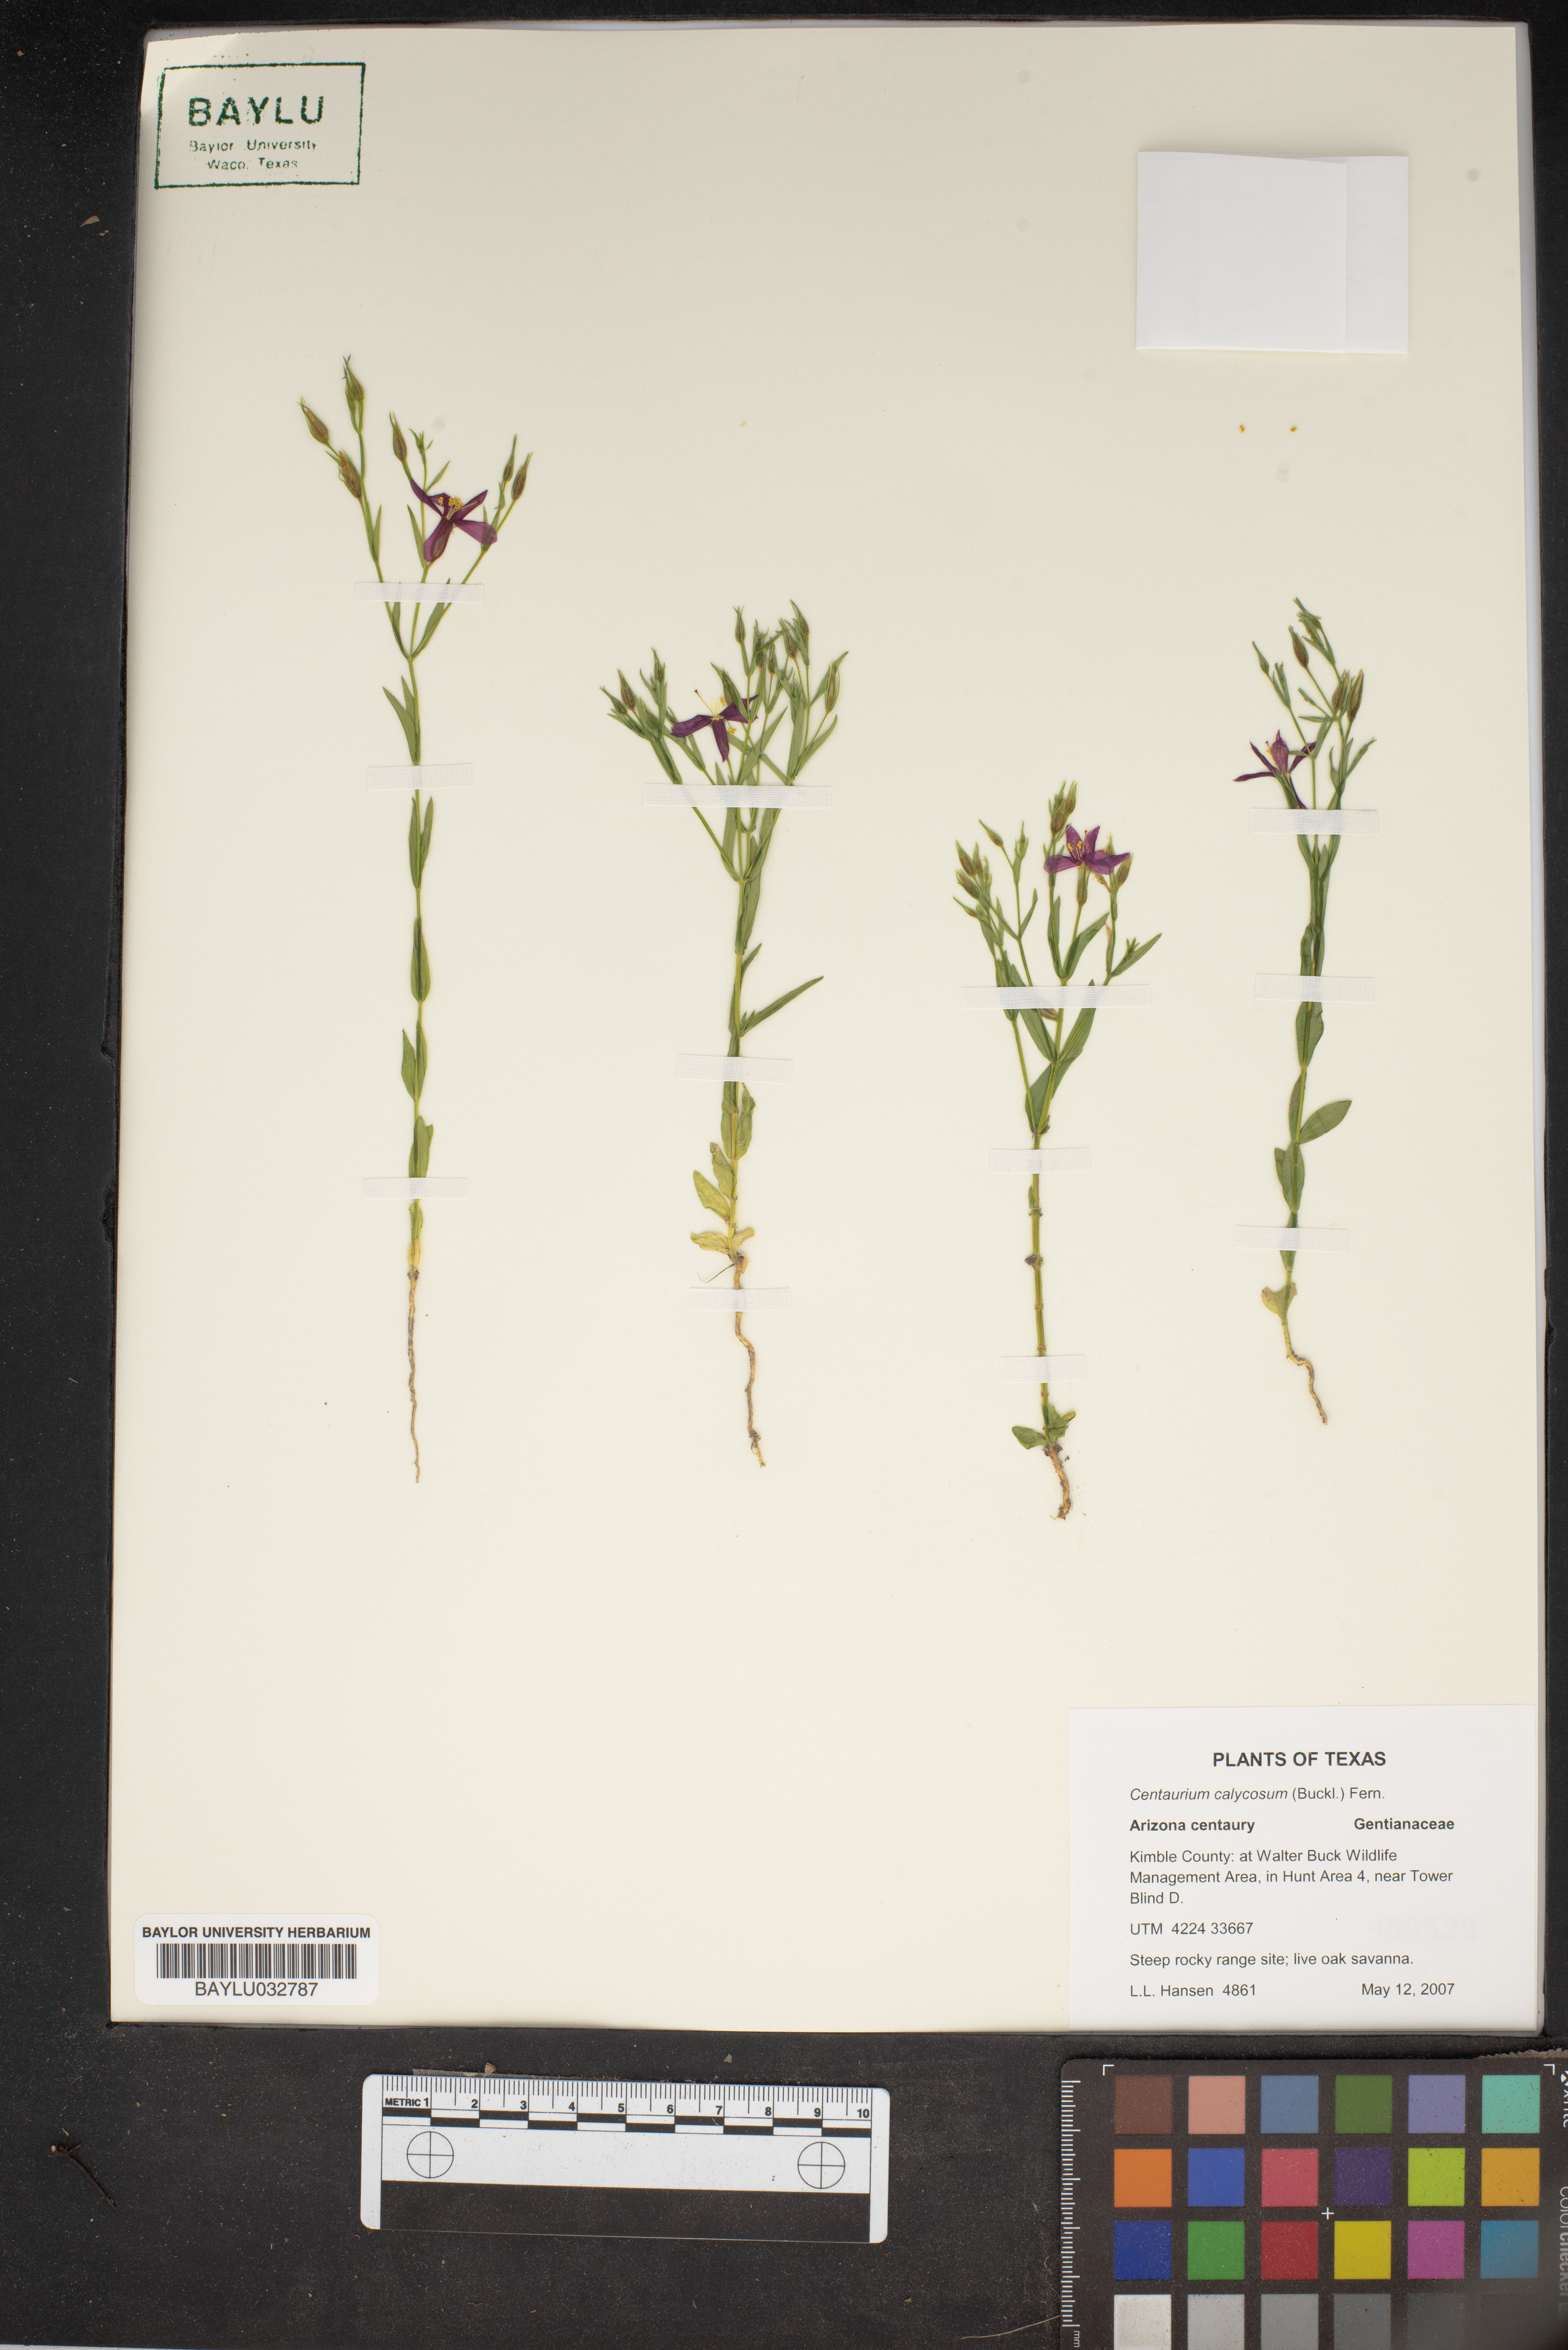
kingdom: Plantae
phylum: Tracheophyta
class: Magnoliopsida
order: Gentianales
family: Gentianaceae
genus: Zeltnera
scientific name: Zeltnera calycosa
